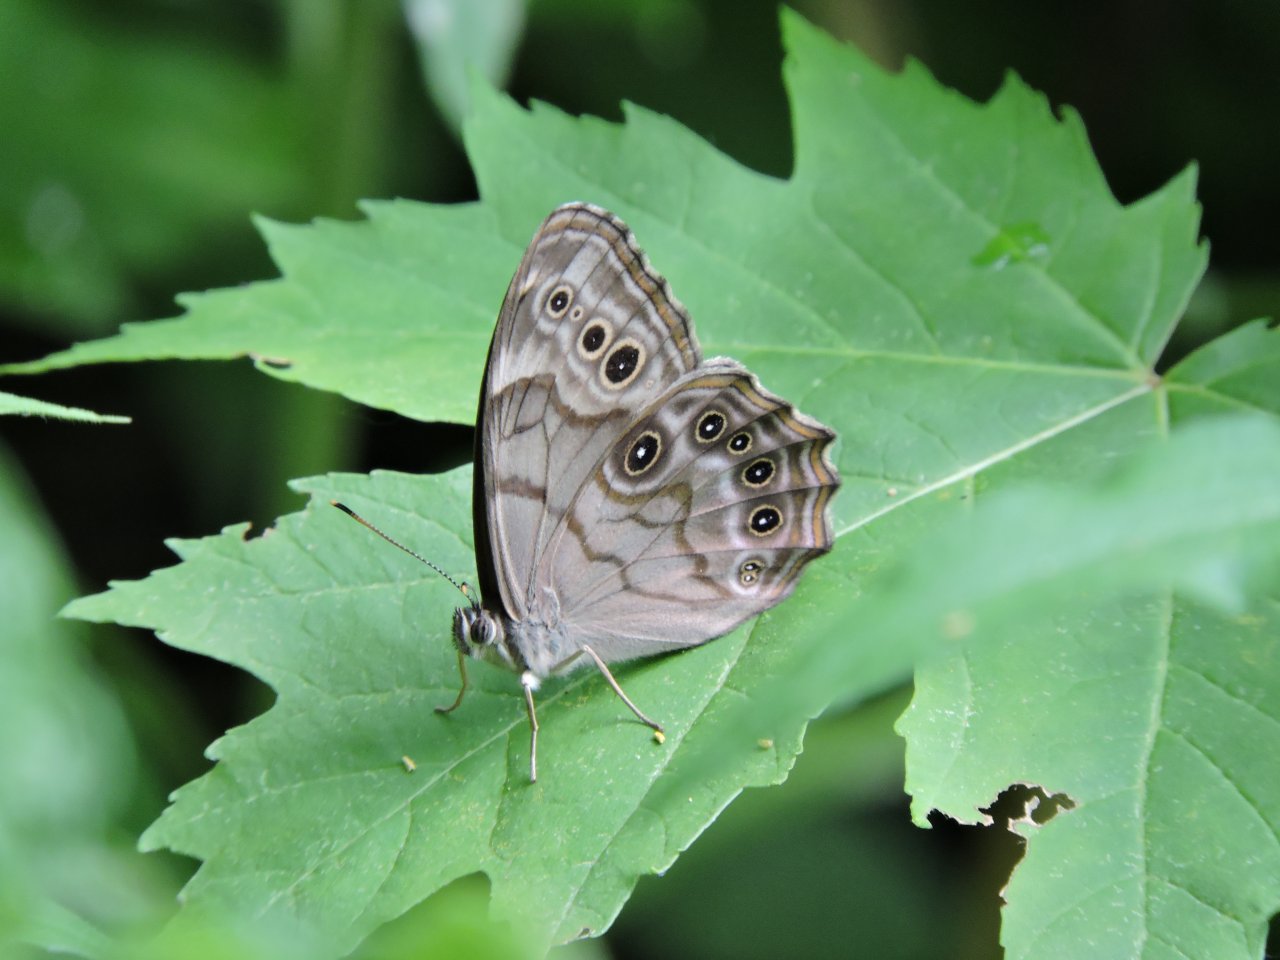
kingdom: Animalia
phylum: Arthropoda
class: Insecta
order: Lepidoptera
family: Nymphalidae
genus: Lethe
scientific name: Lethe anthedon
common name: Northern Pearly-Eye
